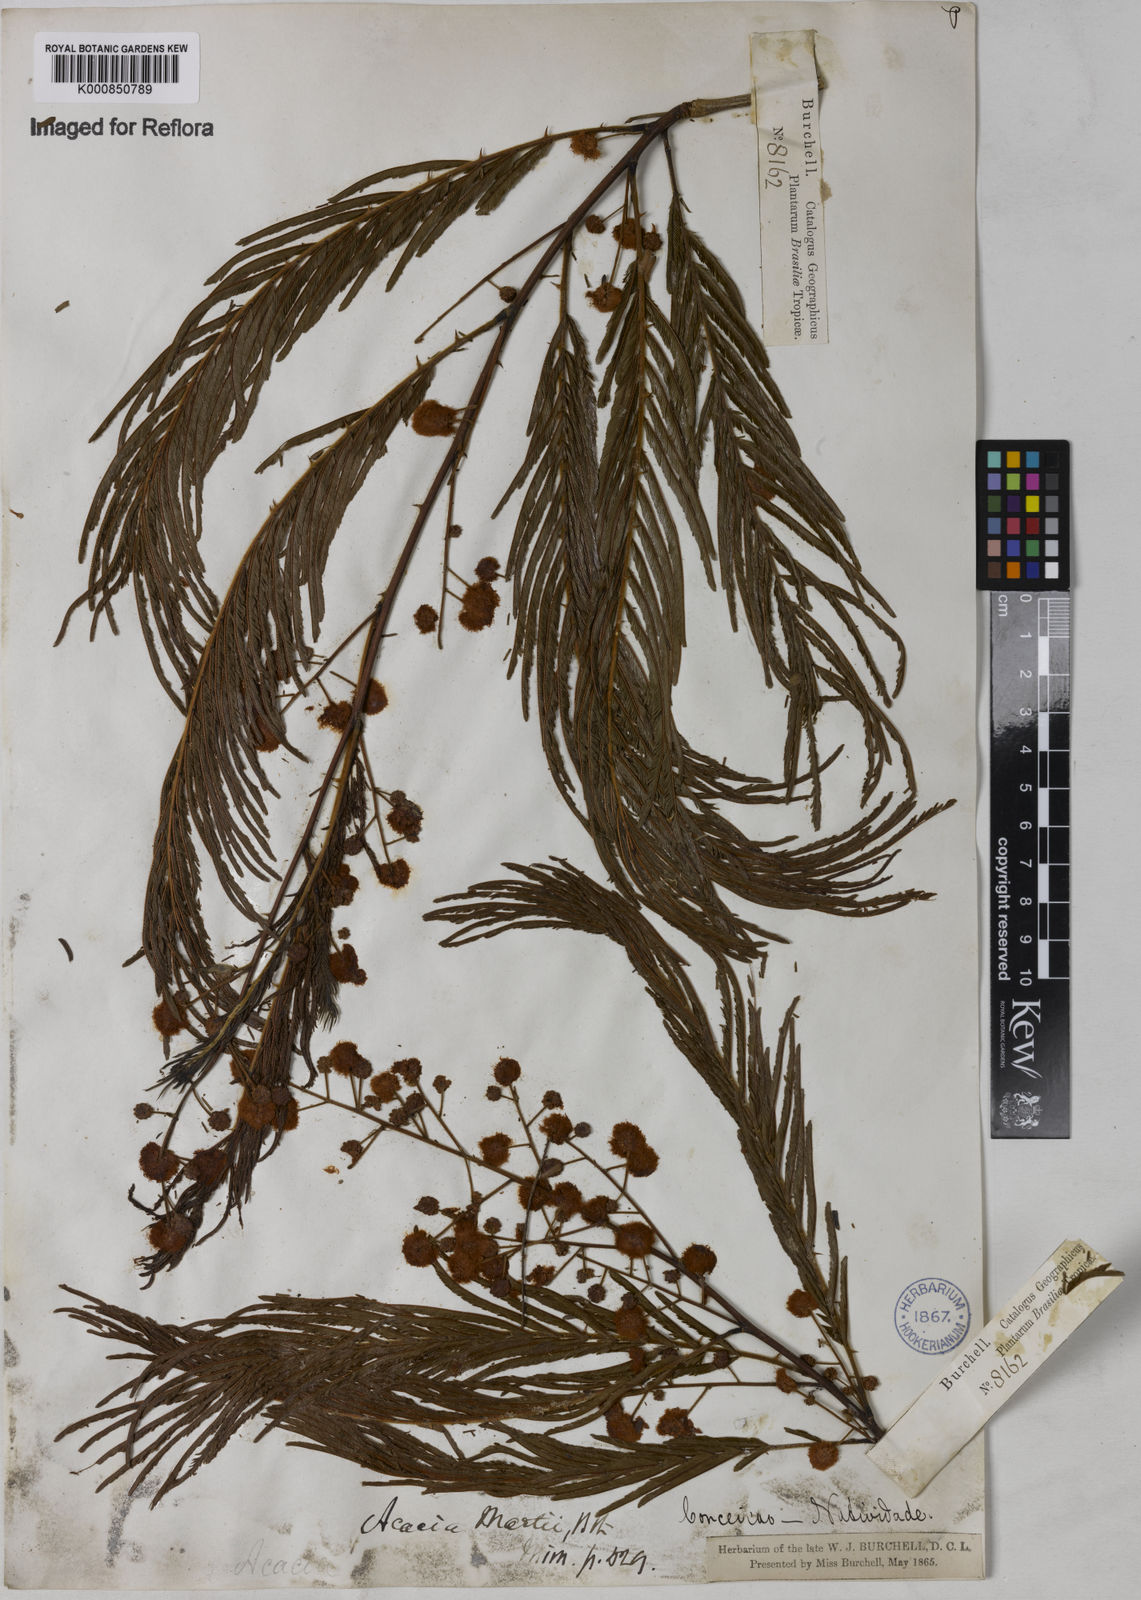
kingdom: Plantae
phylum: Tracheophyta
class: Magnoliopsida
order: Fabales
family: Fabaceae
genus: Senegalia
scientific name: Senegalia martii
